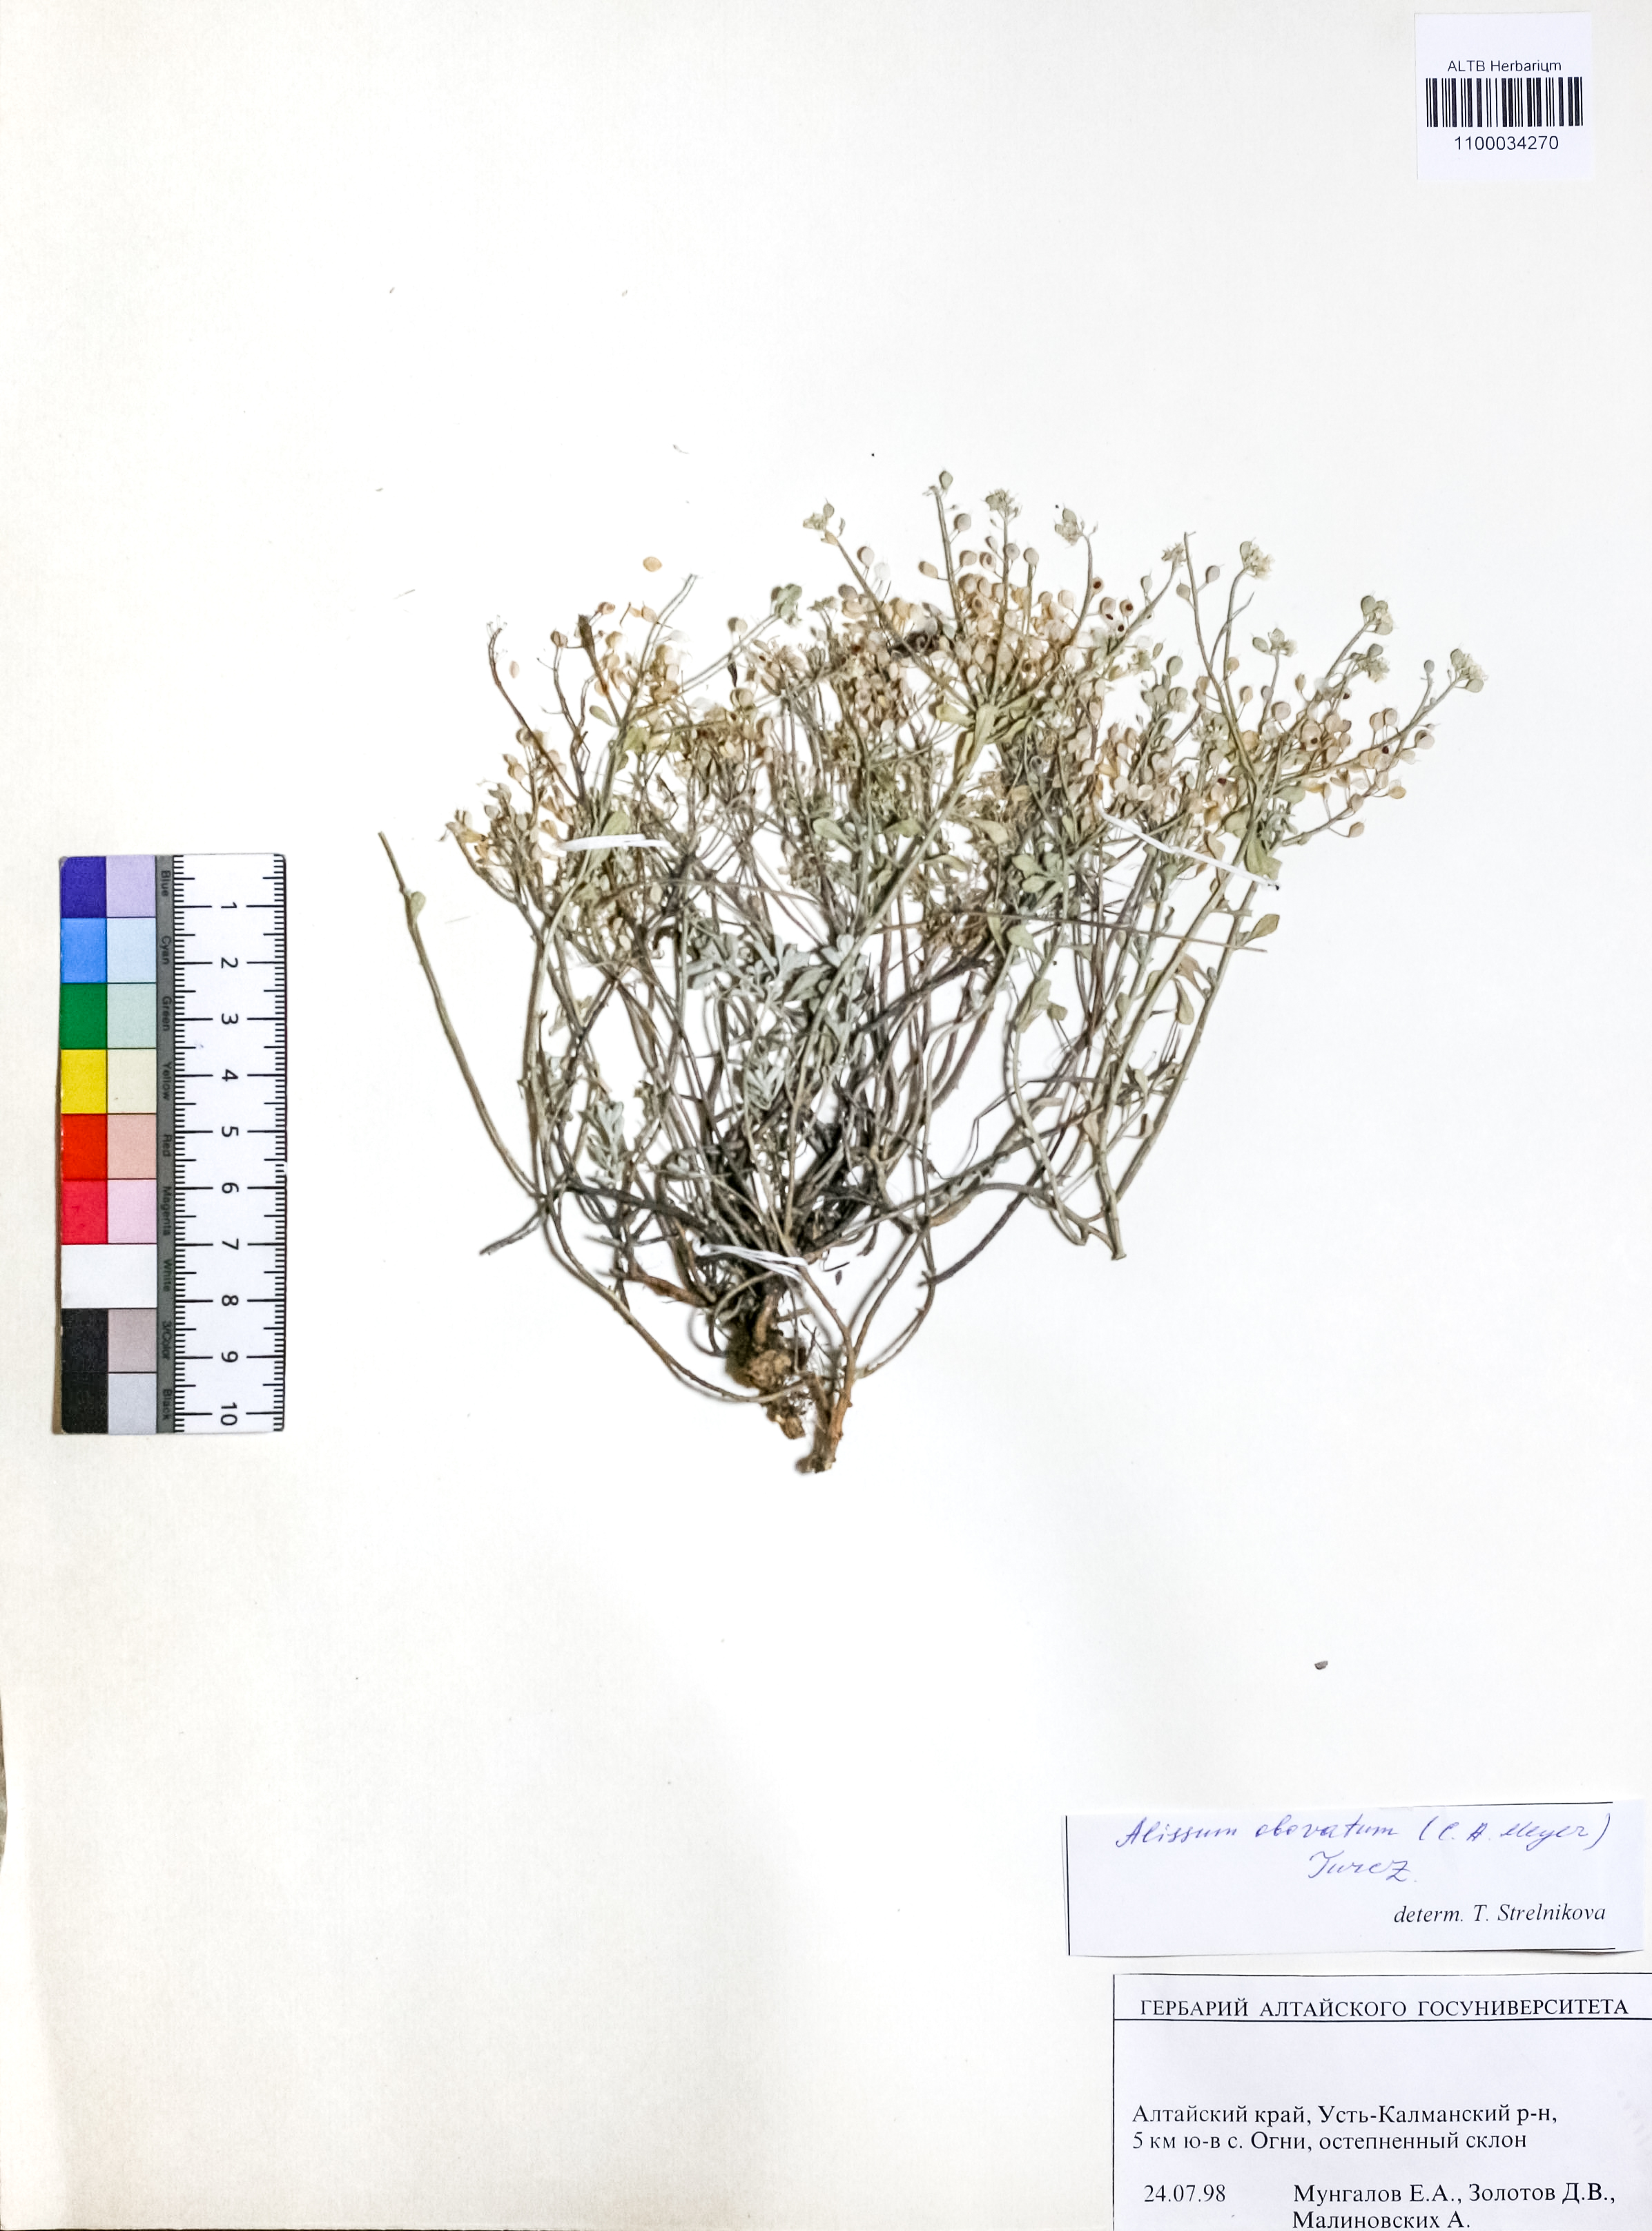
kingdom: Plantae
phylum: Tracheophyta
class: Magnoliopsida
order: Brassicales
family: Brassicaceae
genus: Odontarrhena
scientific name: Odontarrhena obovata
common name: American alyssum
